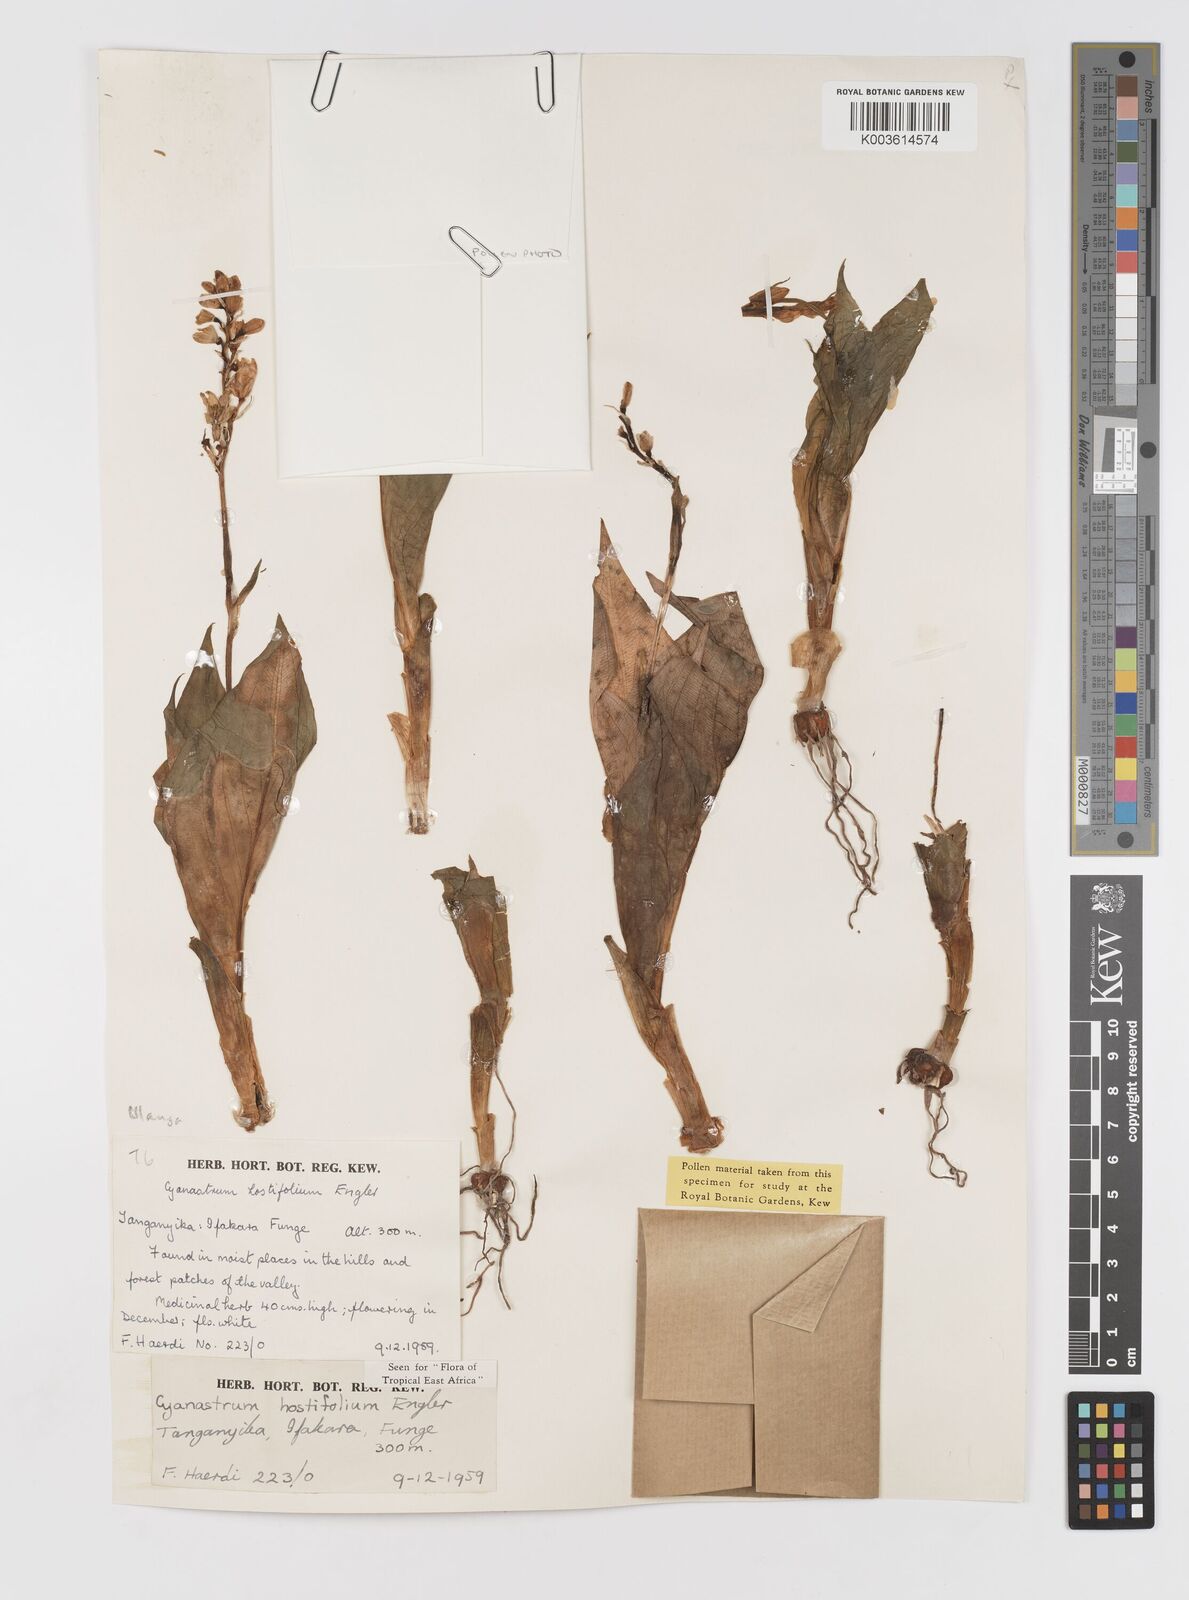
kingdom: Plantae
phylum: Tracheophyta
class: Liliopsida
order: Asparagales
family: Tecophilaeaceae
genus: Kabuyea
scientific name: Kabuyea hostifolia
